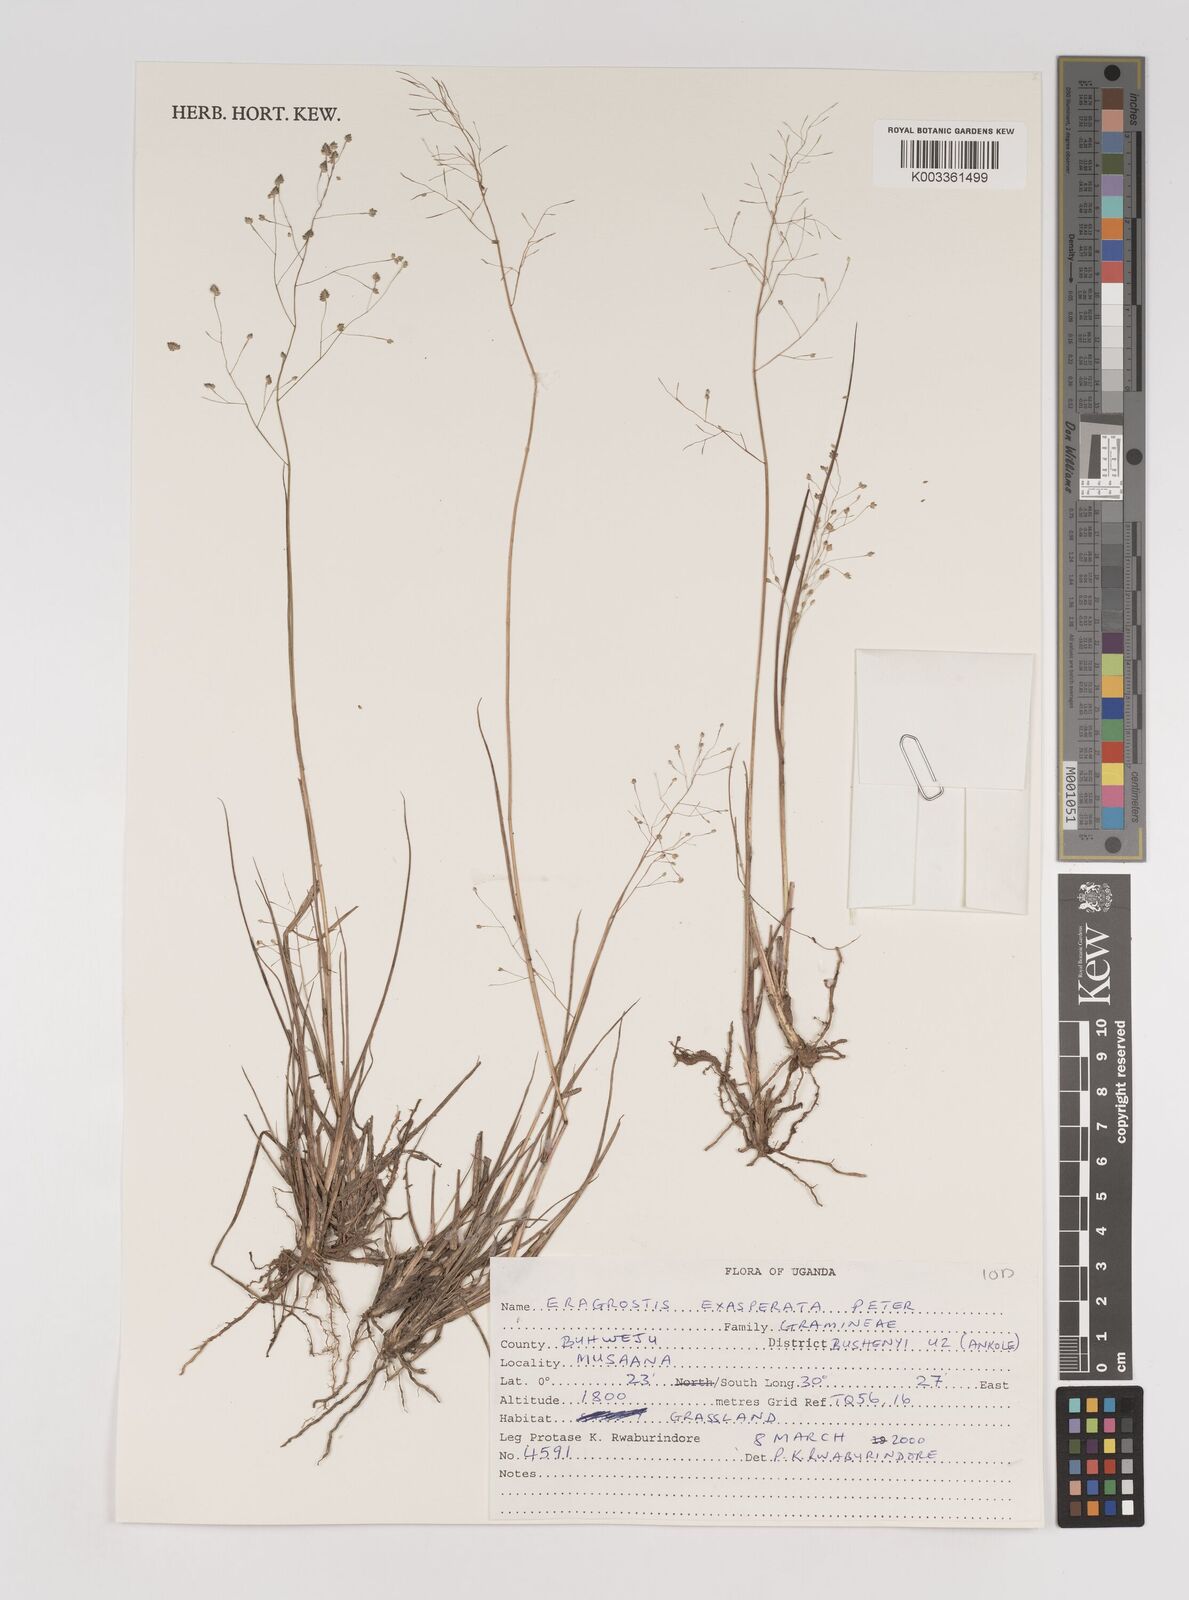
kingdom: Plantae
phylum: Tracheophyta
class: Liliopsida
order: Poales
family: Poaceae
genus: Eragrostis
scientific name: Eragrostis exasperata
